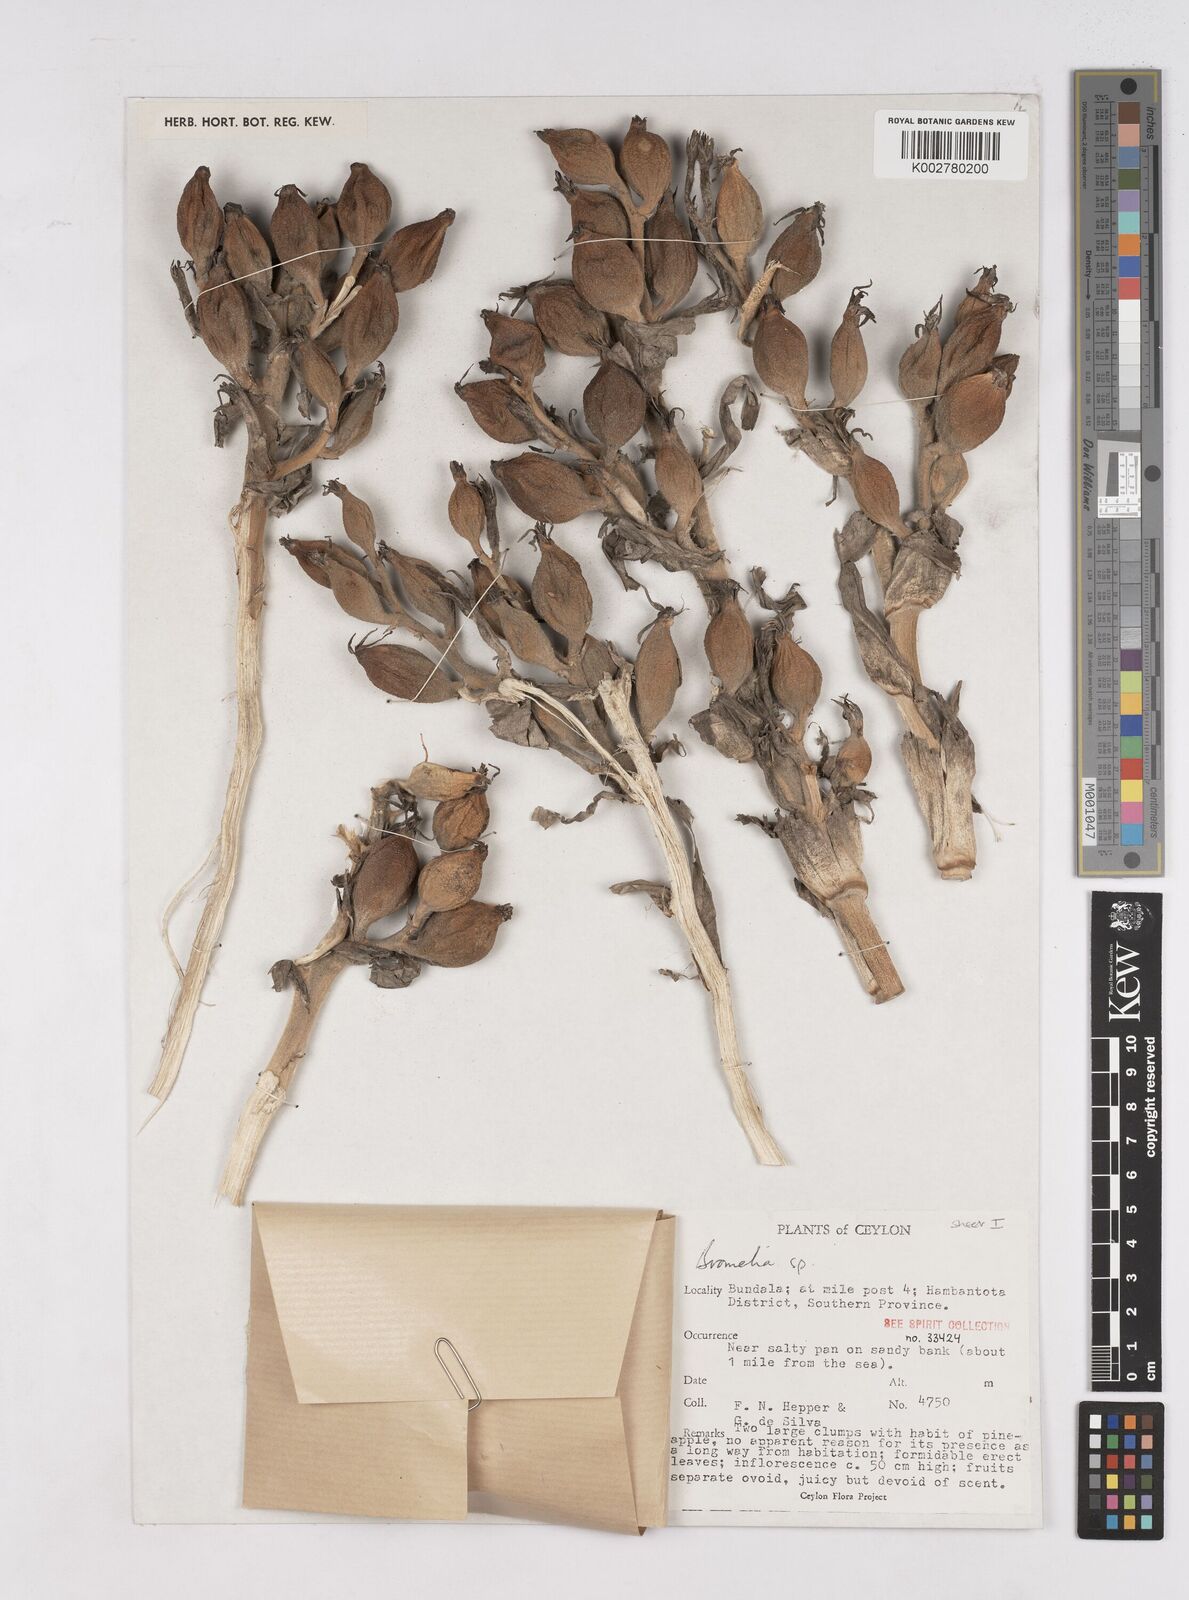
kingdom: Plantae
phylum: Tracheophyta
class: Liliopsida
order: Poales
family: Bromeliaceae
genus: Bromelia
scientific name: Bromelia
